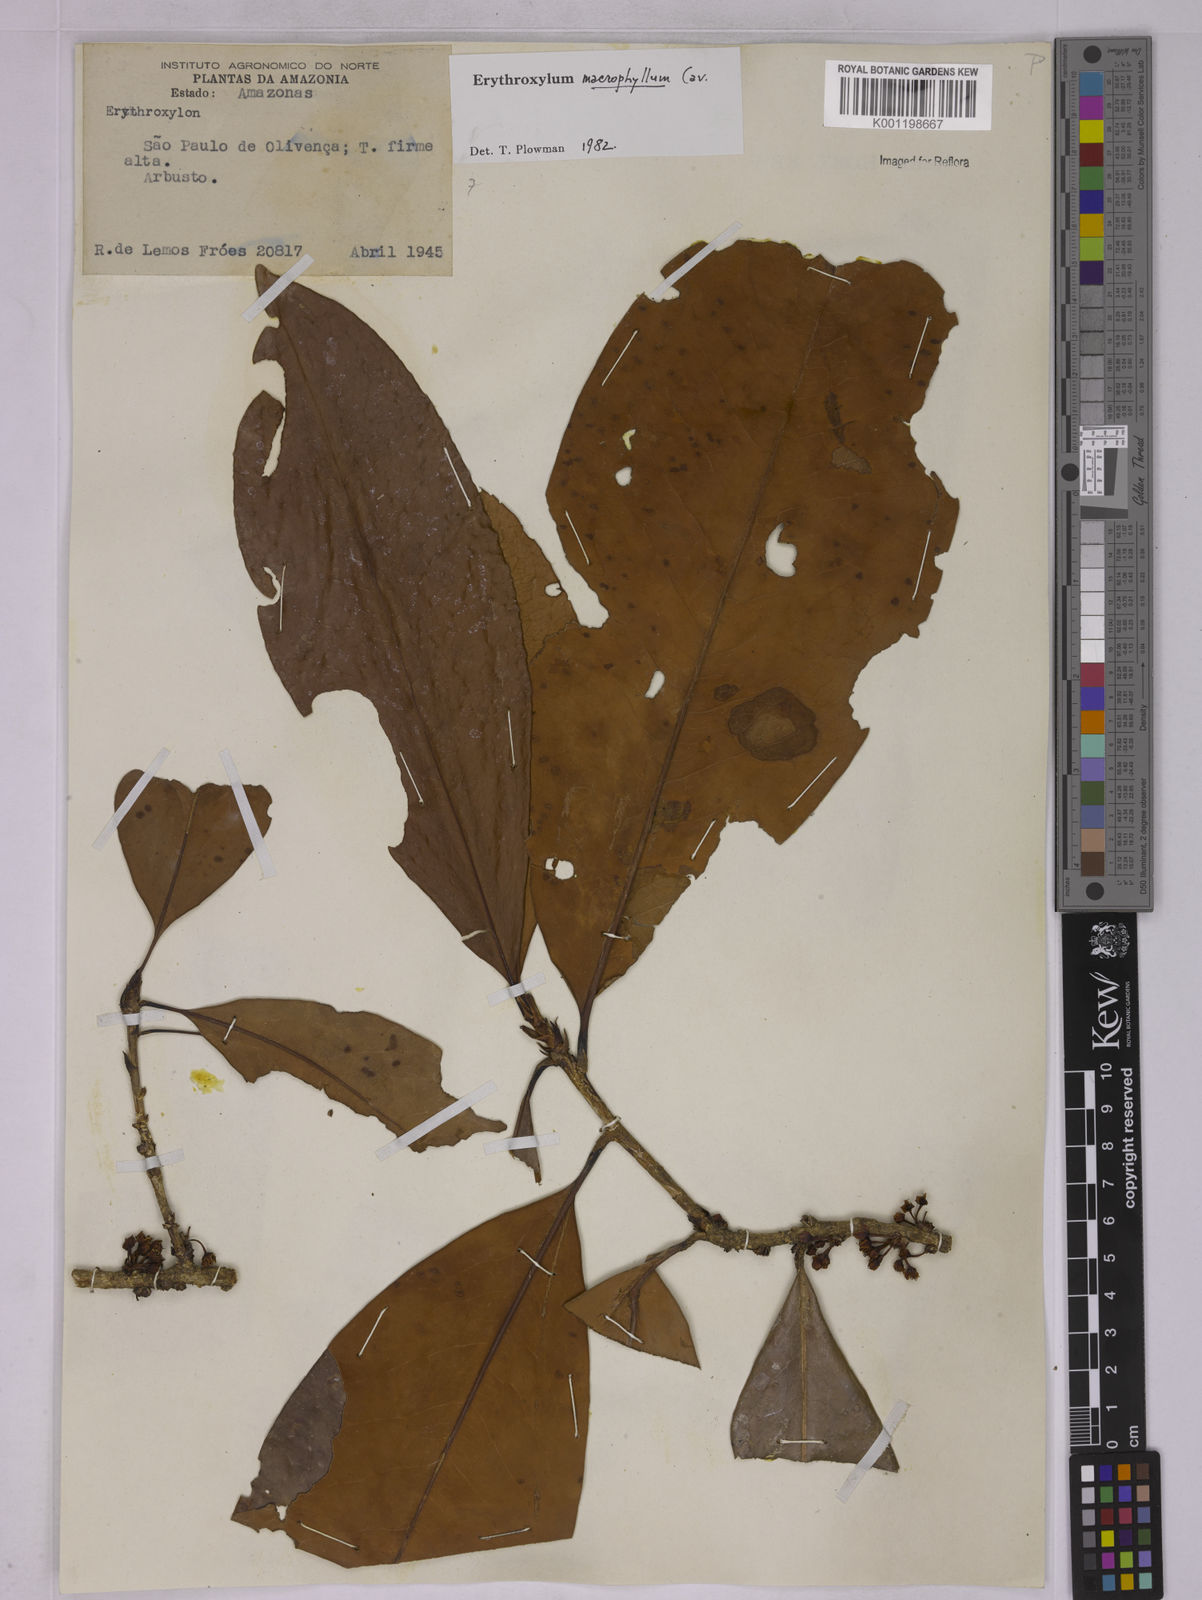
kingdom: Plantae
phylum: Tracheophyta
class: Magnoliopsida
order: Malpighiales
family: Erythroxylaceae
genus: Erythroxylum
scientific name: Erythroxylum macrophyllum
